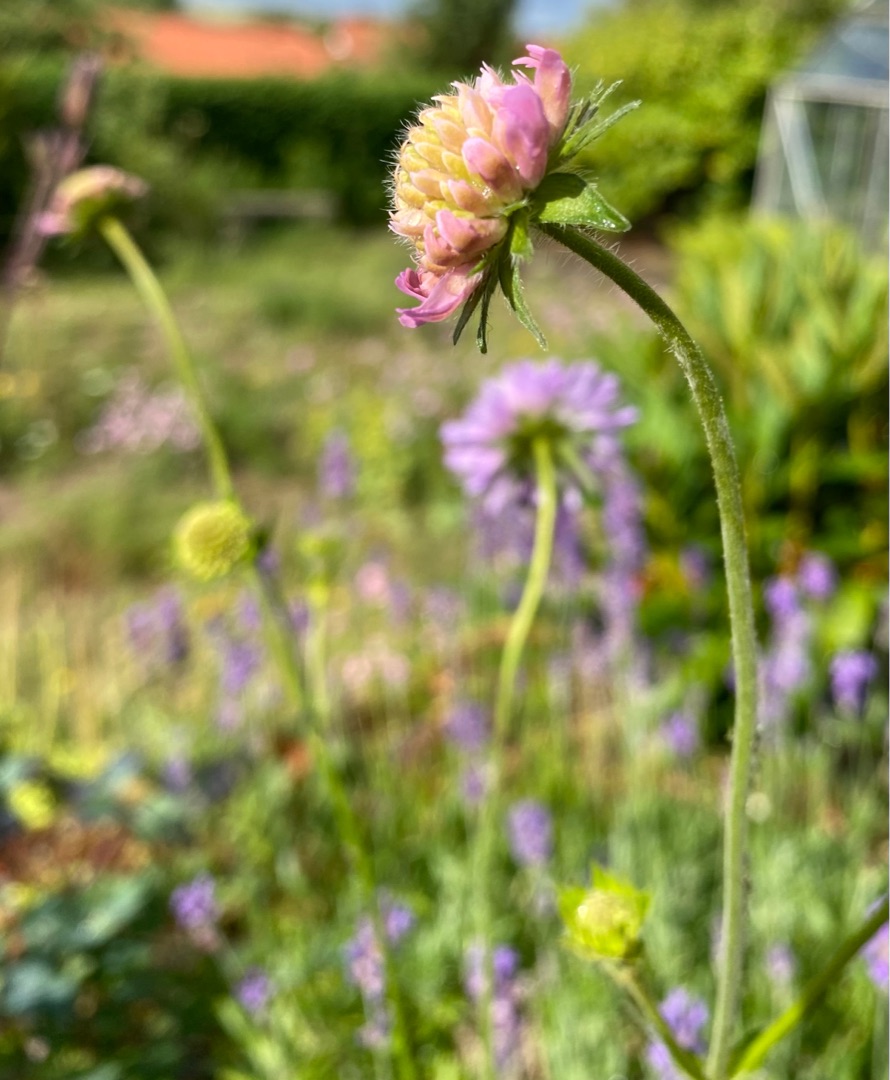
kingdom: Plantae
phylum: Tracheophyta
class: Magnoliopsida
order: Dipsacales
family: Caprifoliaceae
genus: Knautia
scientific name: Knautia arvensis
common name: Blåhat
